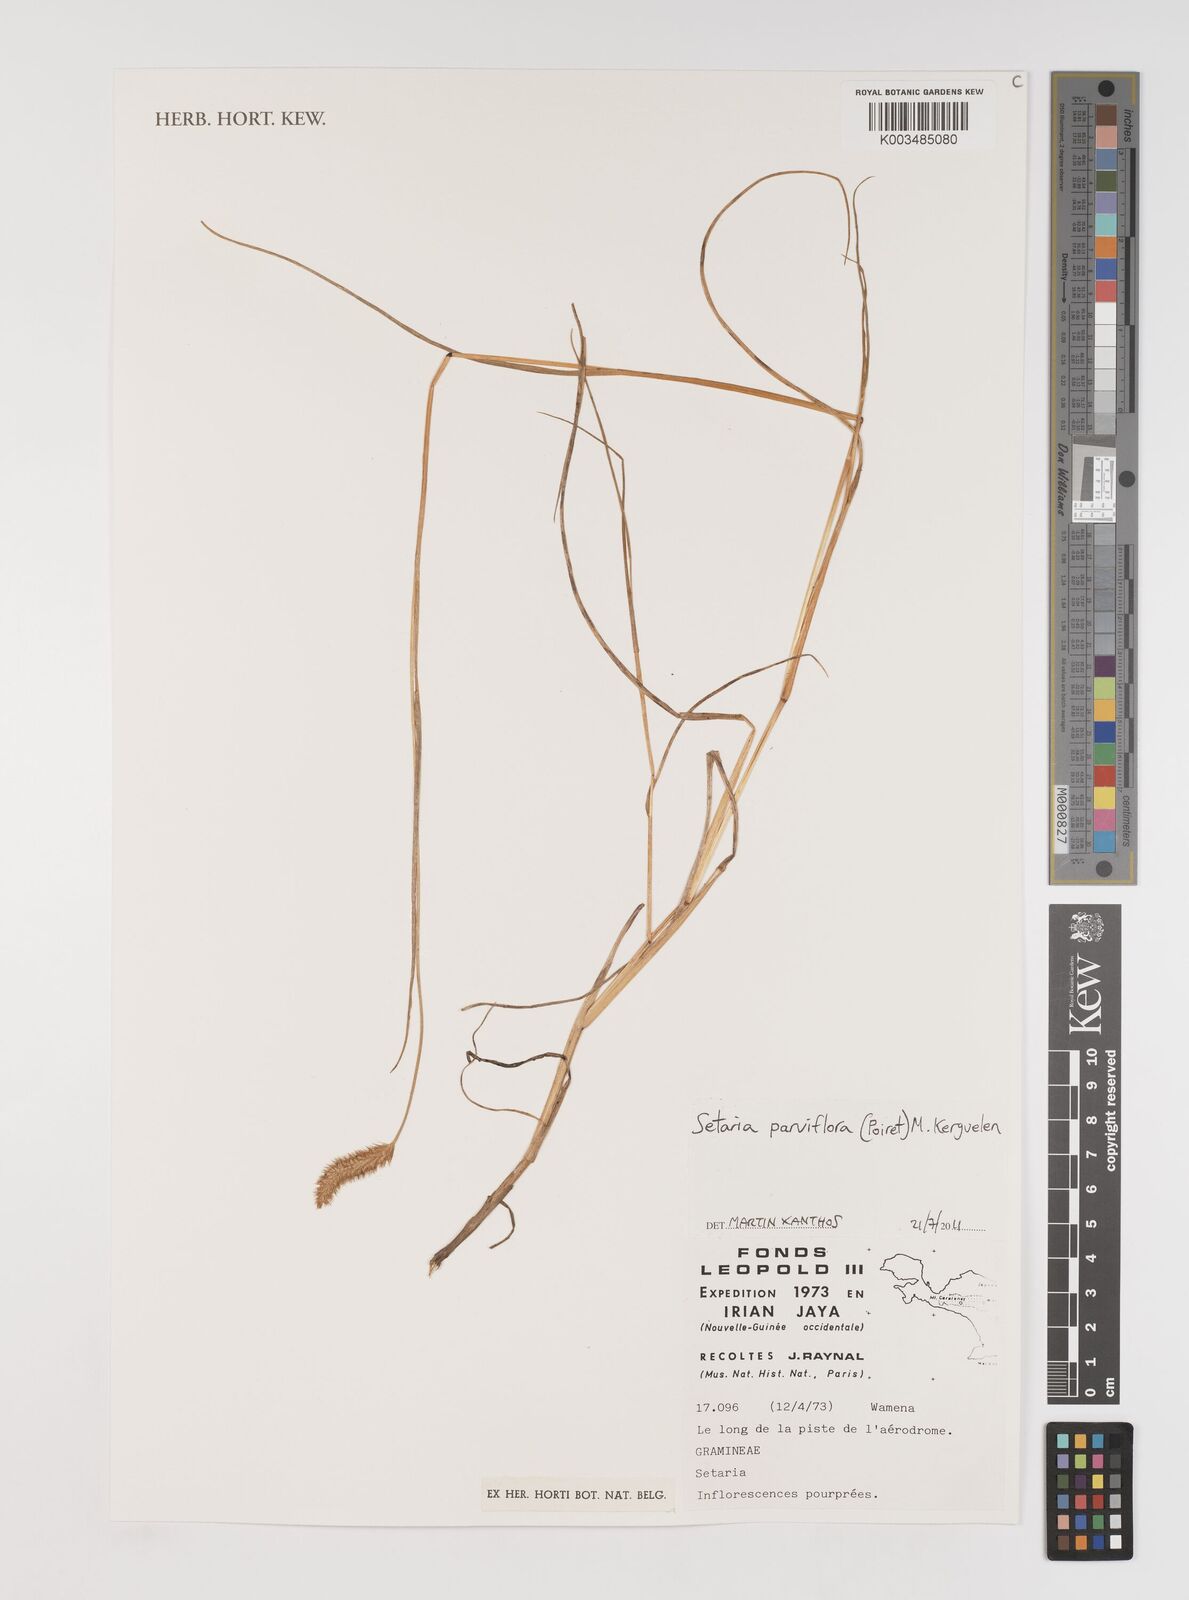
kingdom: Plantae
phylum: Tracheophyta
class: Liliopsida
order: Poales
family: Poaceae
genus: Setaria
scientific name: Setaria parviflora
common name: Knotroot bristle-grass
